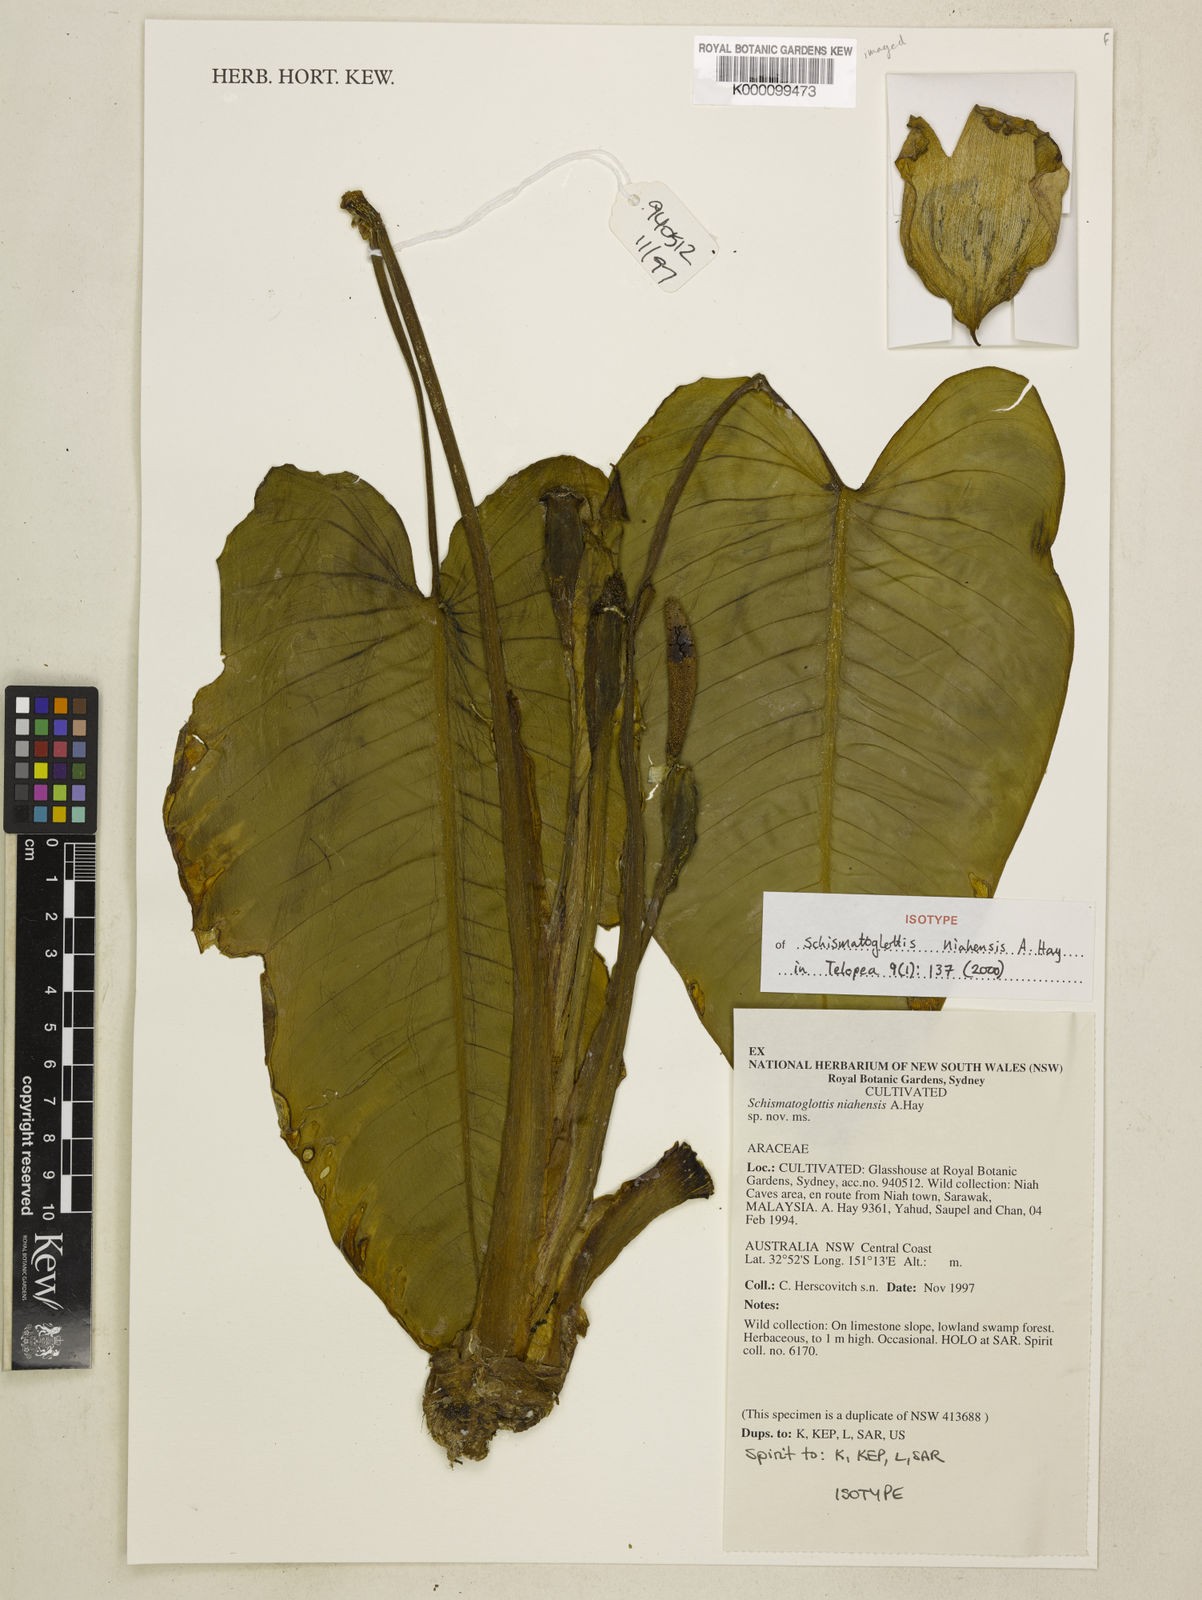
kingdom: Plantae
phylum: Tracheophyta
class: Liliopsida
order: Alismatales
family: Araceae
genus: Schismatoglottis
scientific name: Schismatoglottis niahensis
